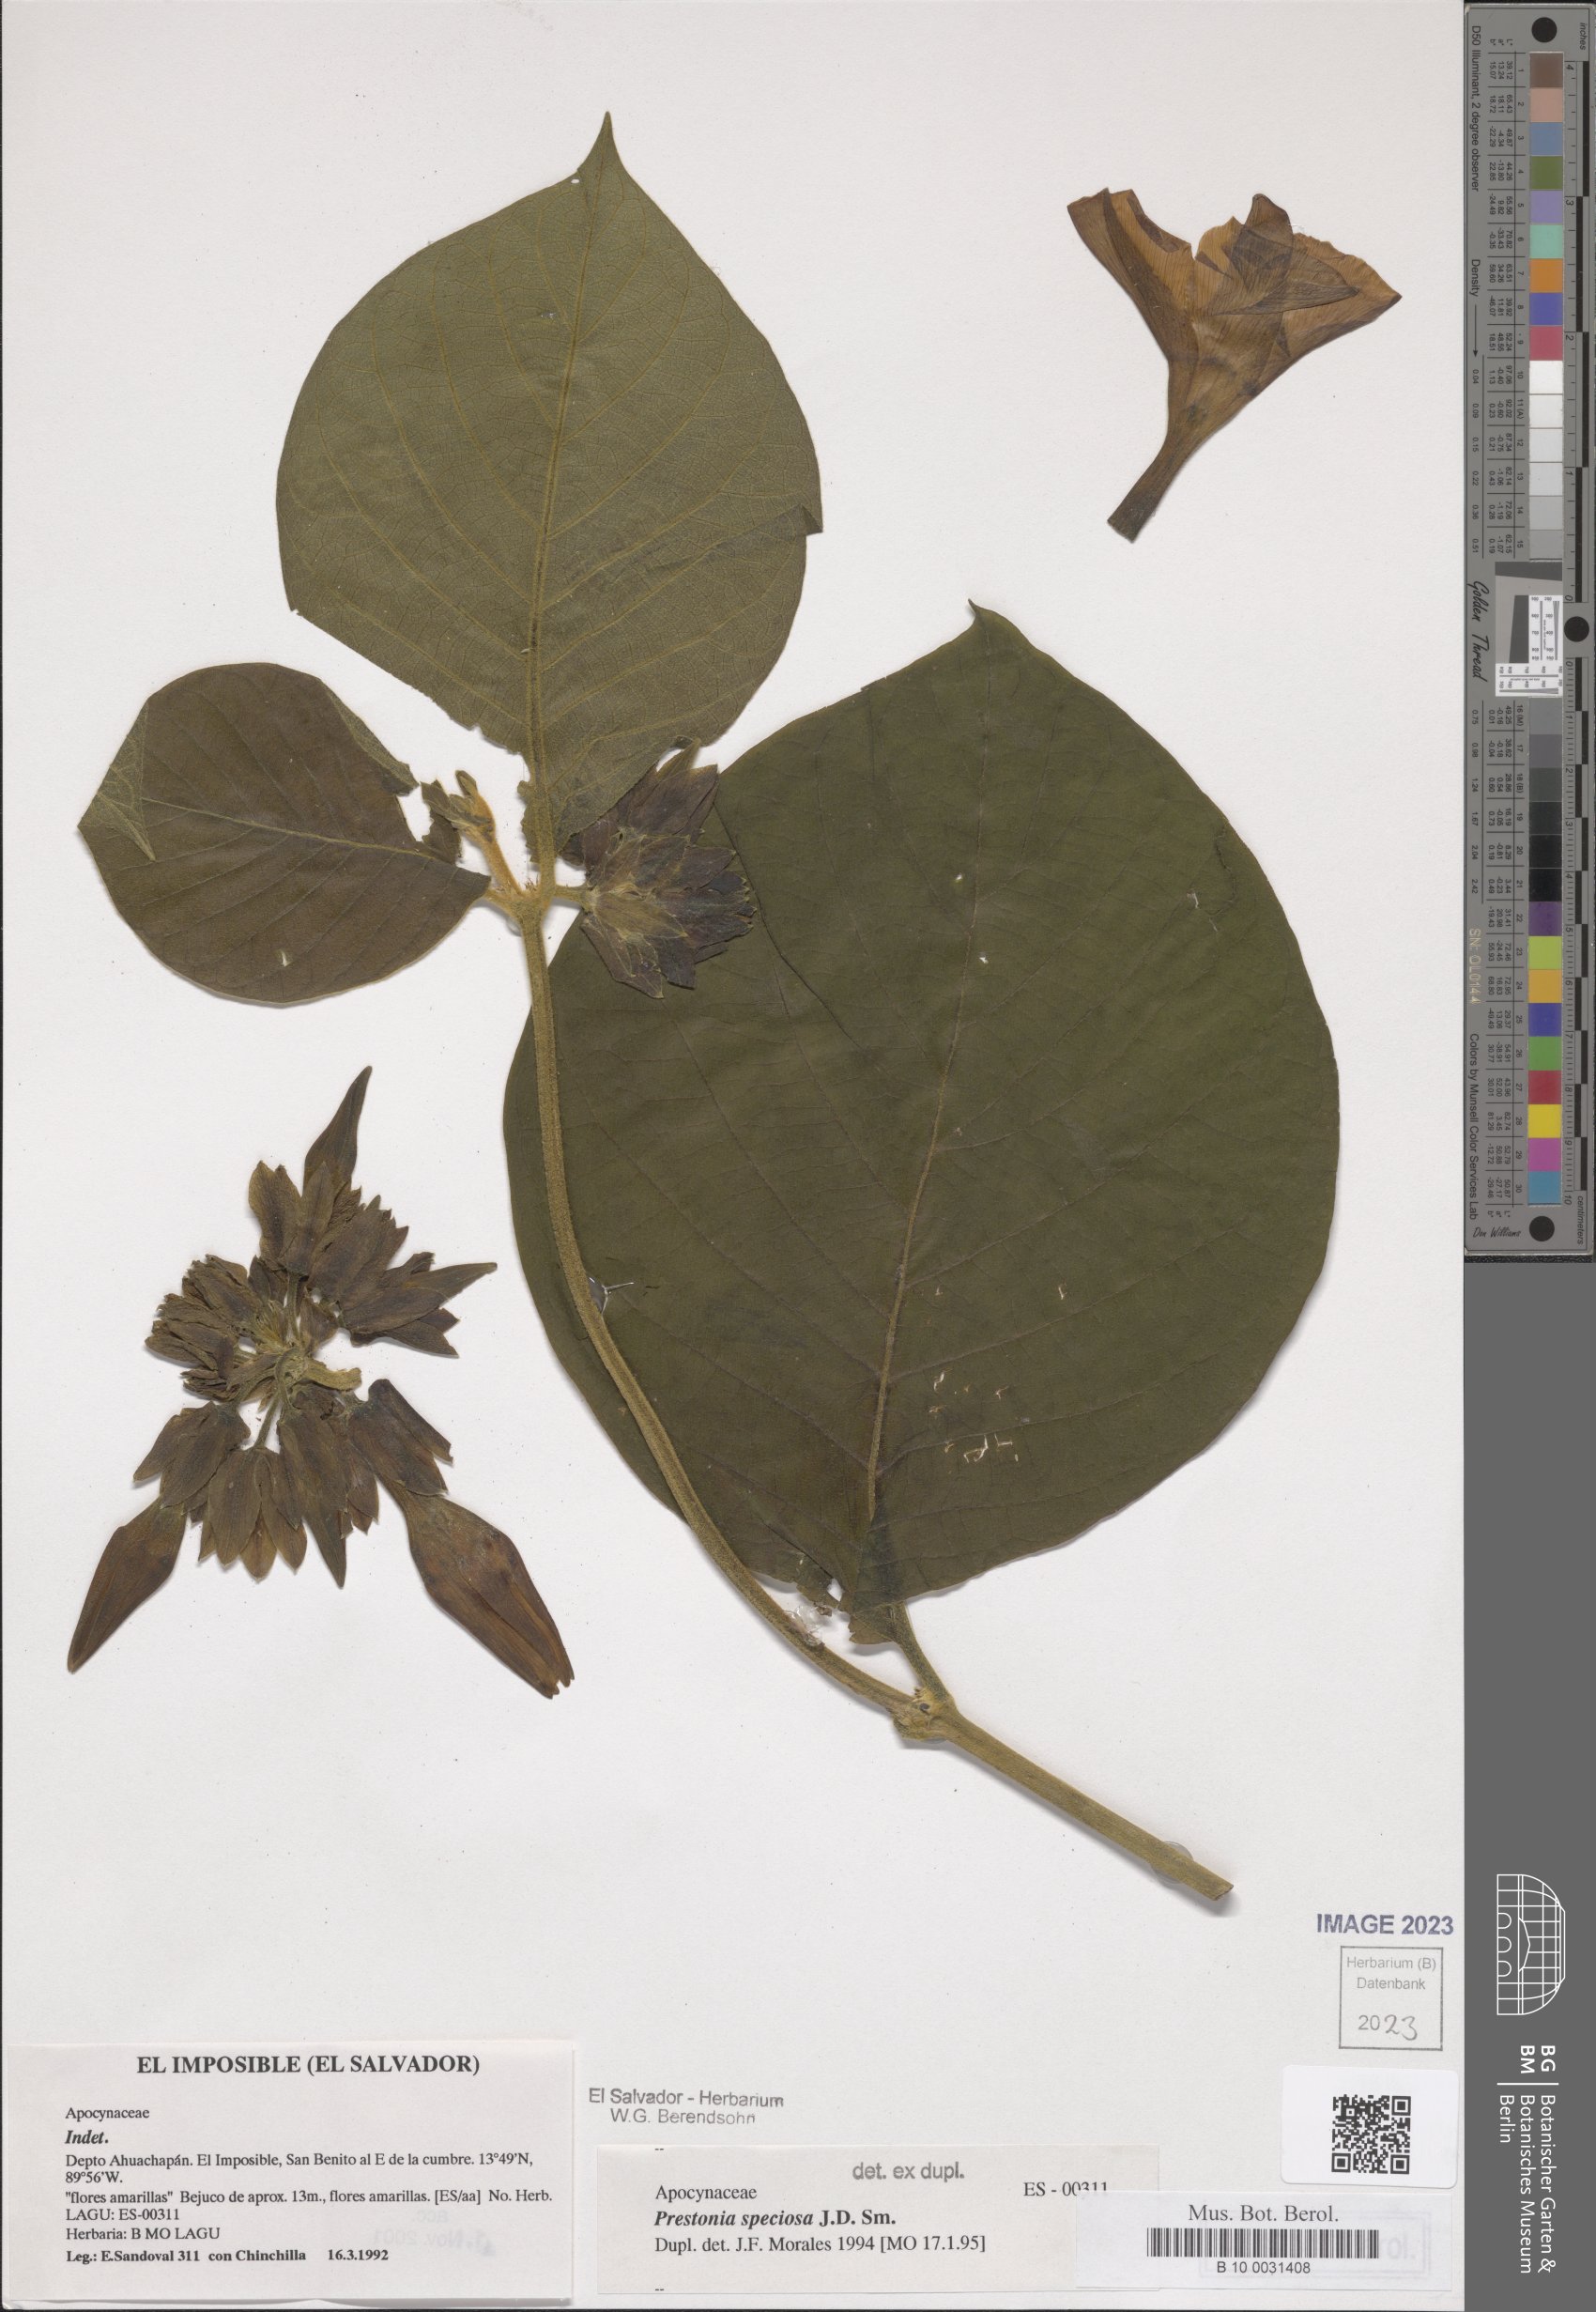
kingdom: Plantae
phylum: Tracheophyta
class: Magnoliopsida
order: Gentianales
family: Apocynaceae
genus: Prestonia
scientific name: Prestonia speciosa
